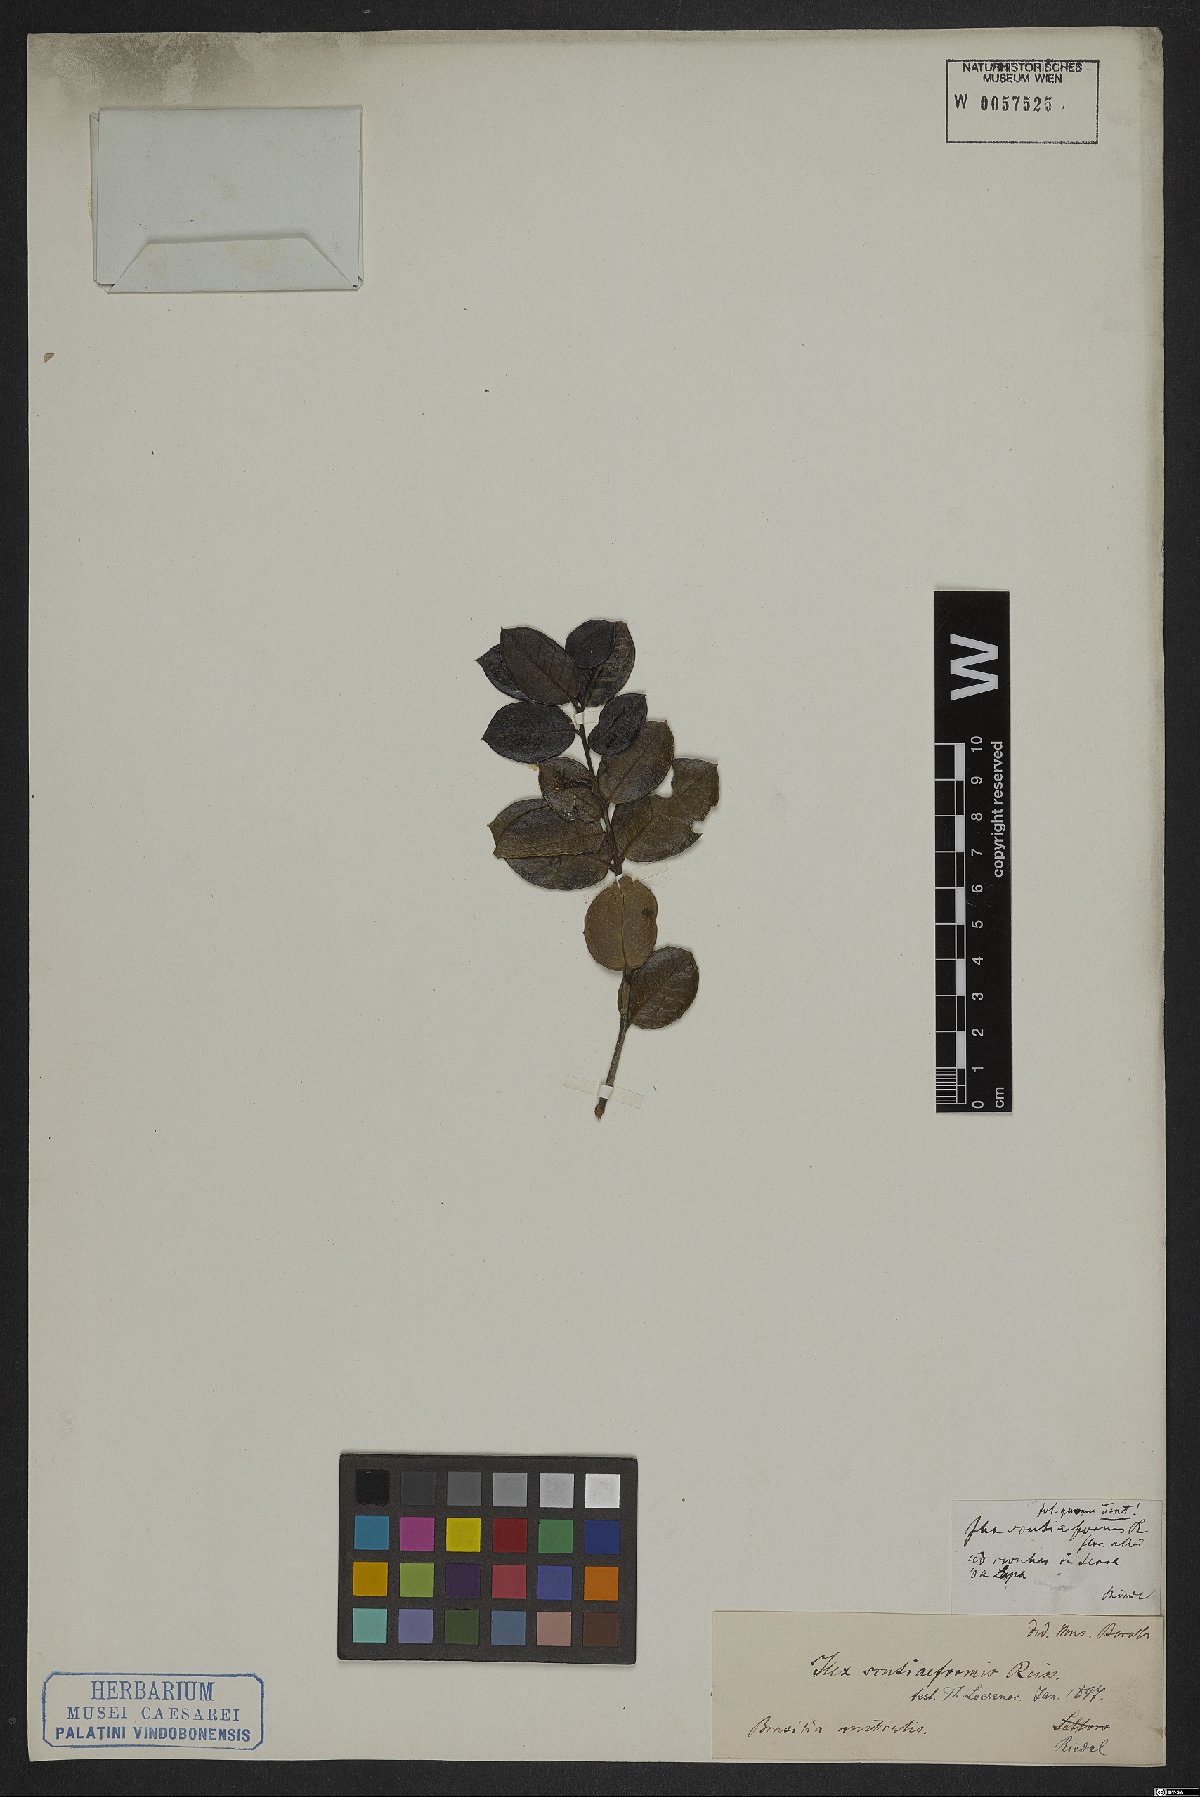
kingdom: Plantae
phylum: Tracheophyta
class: Magnoliopsida
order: Aquifoliales
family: Aquifoliaceae
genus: Ilex
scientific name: Ilex scutiiformis
